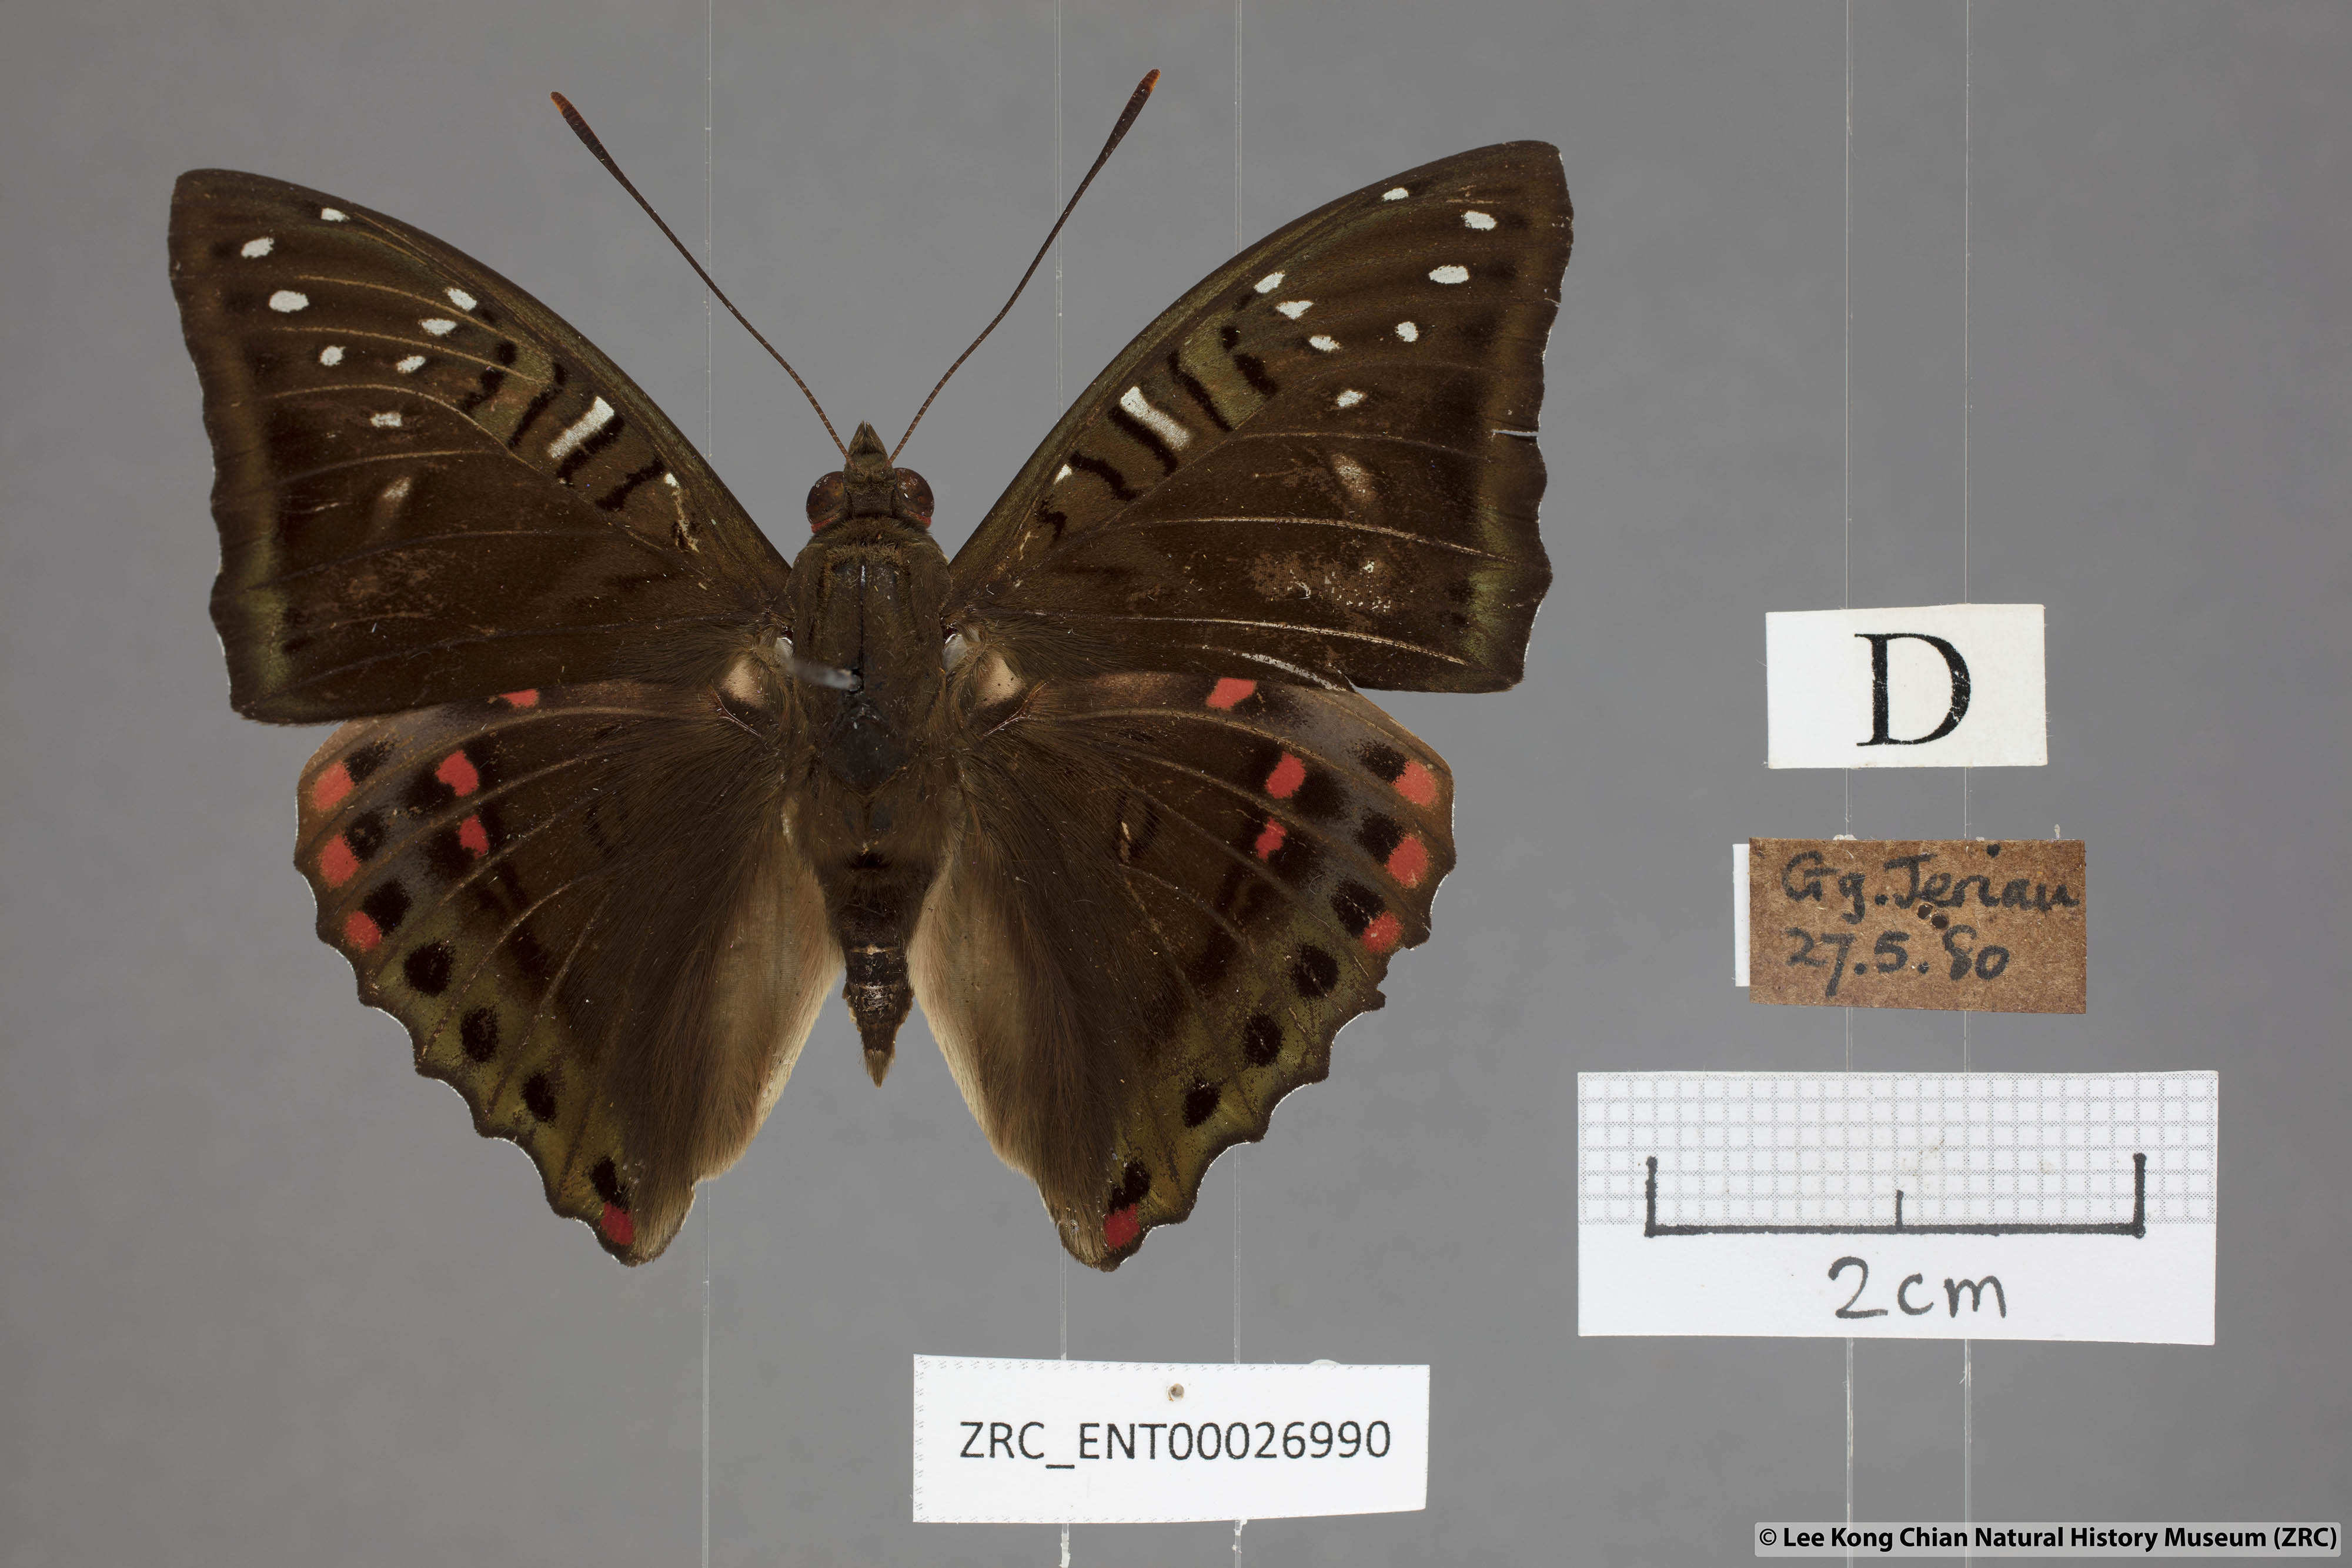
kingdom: Animalia
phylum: Arthropoda
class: Insecta
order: Lepidoptera
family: Nymphalidae
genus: Euthalia
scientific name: Euthalia whiteheadi
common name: Tri-coloured baron
